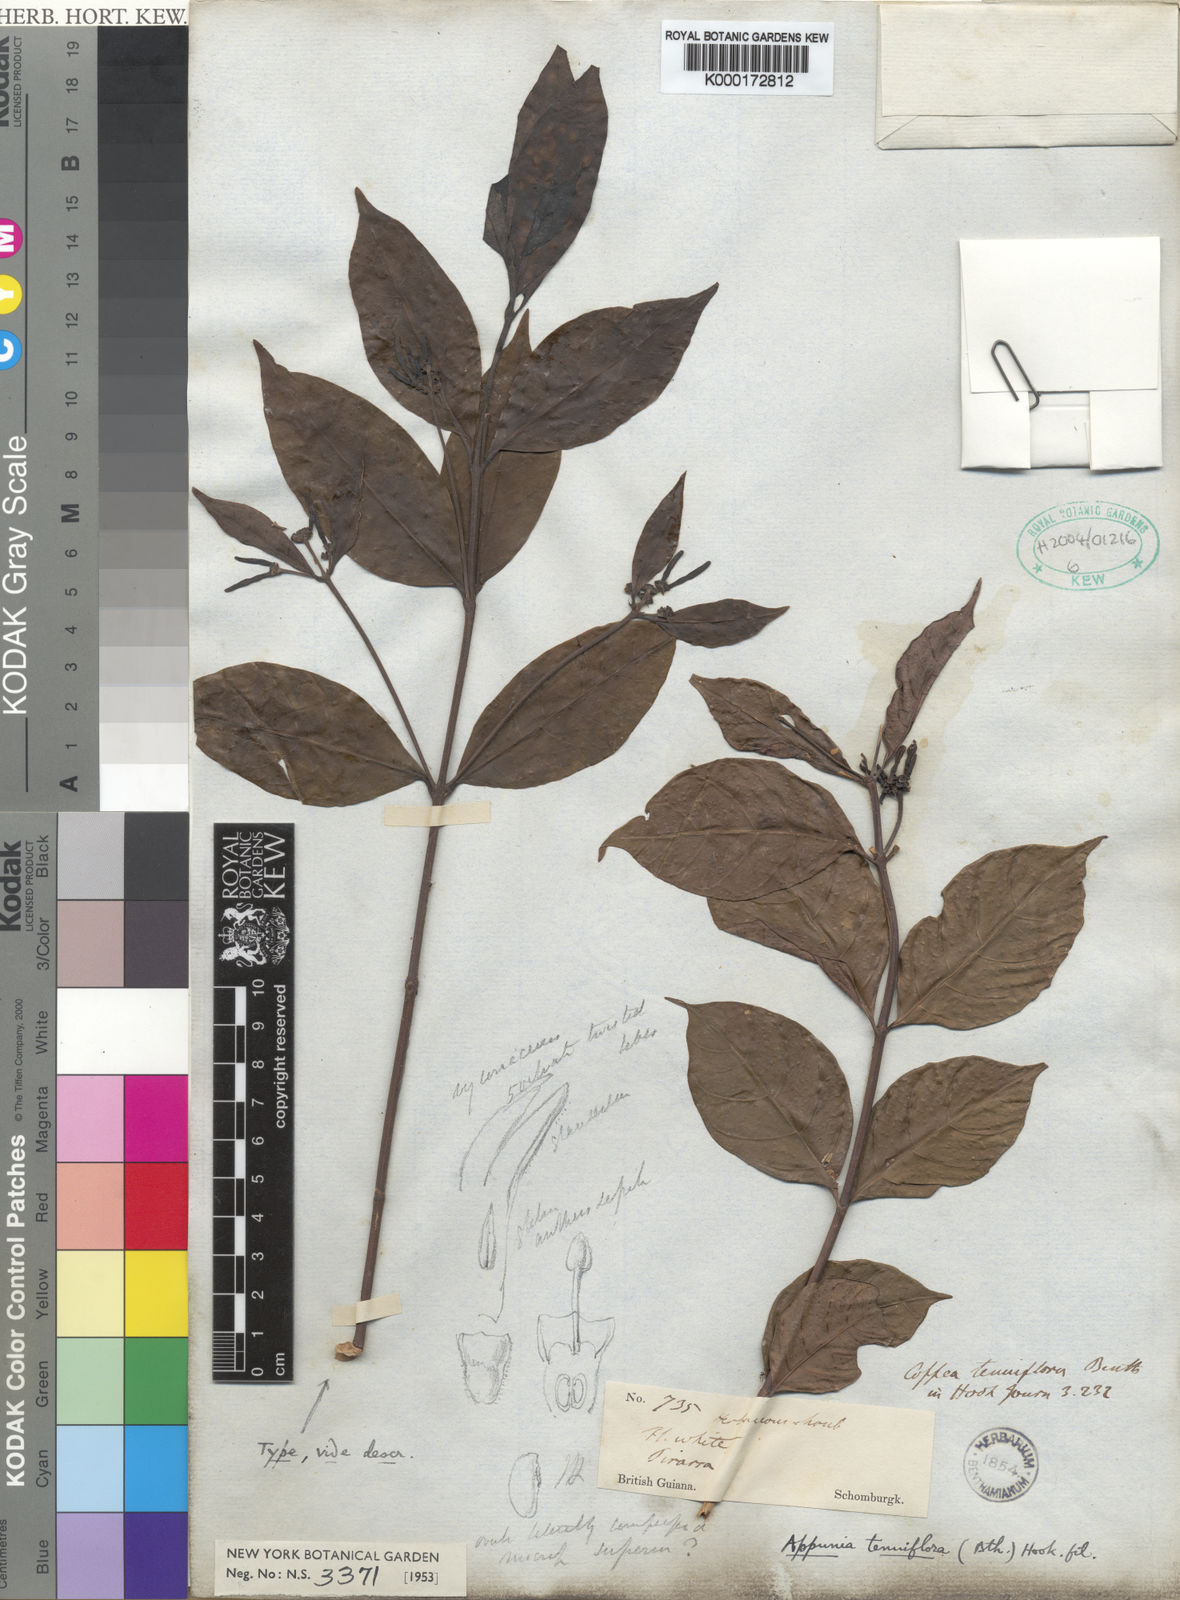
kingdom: Plantae
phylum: Tracheophyta
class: Magnoliopsida
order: Gentianales
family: Rubiaceae
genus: Appunia
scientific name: Appunia tenuiflora
